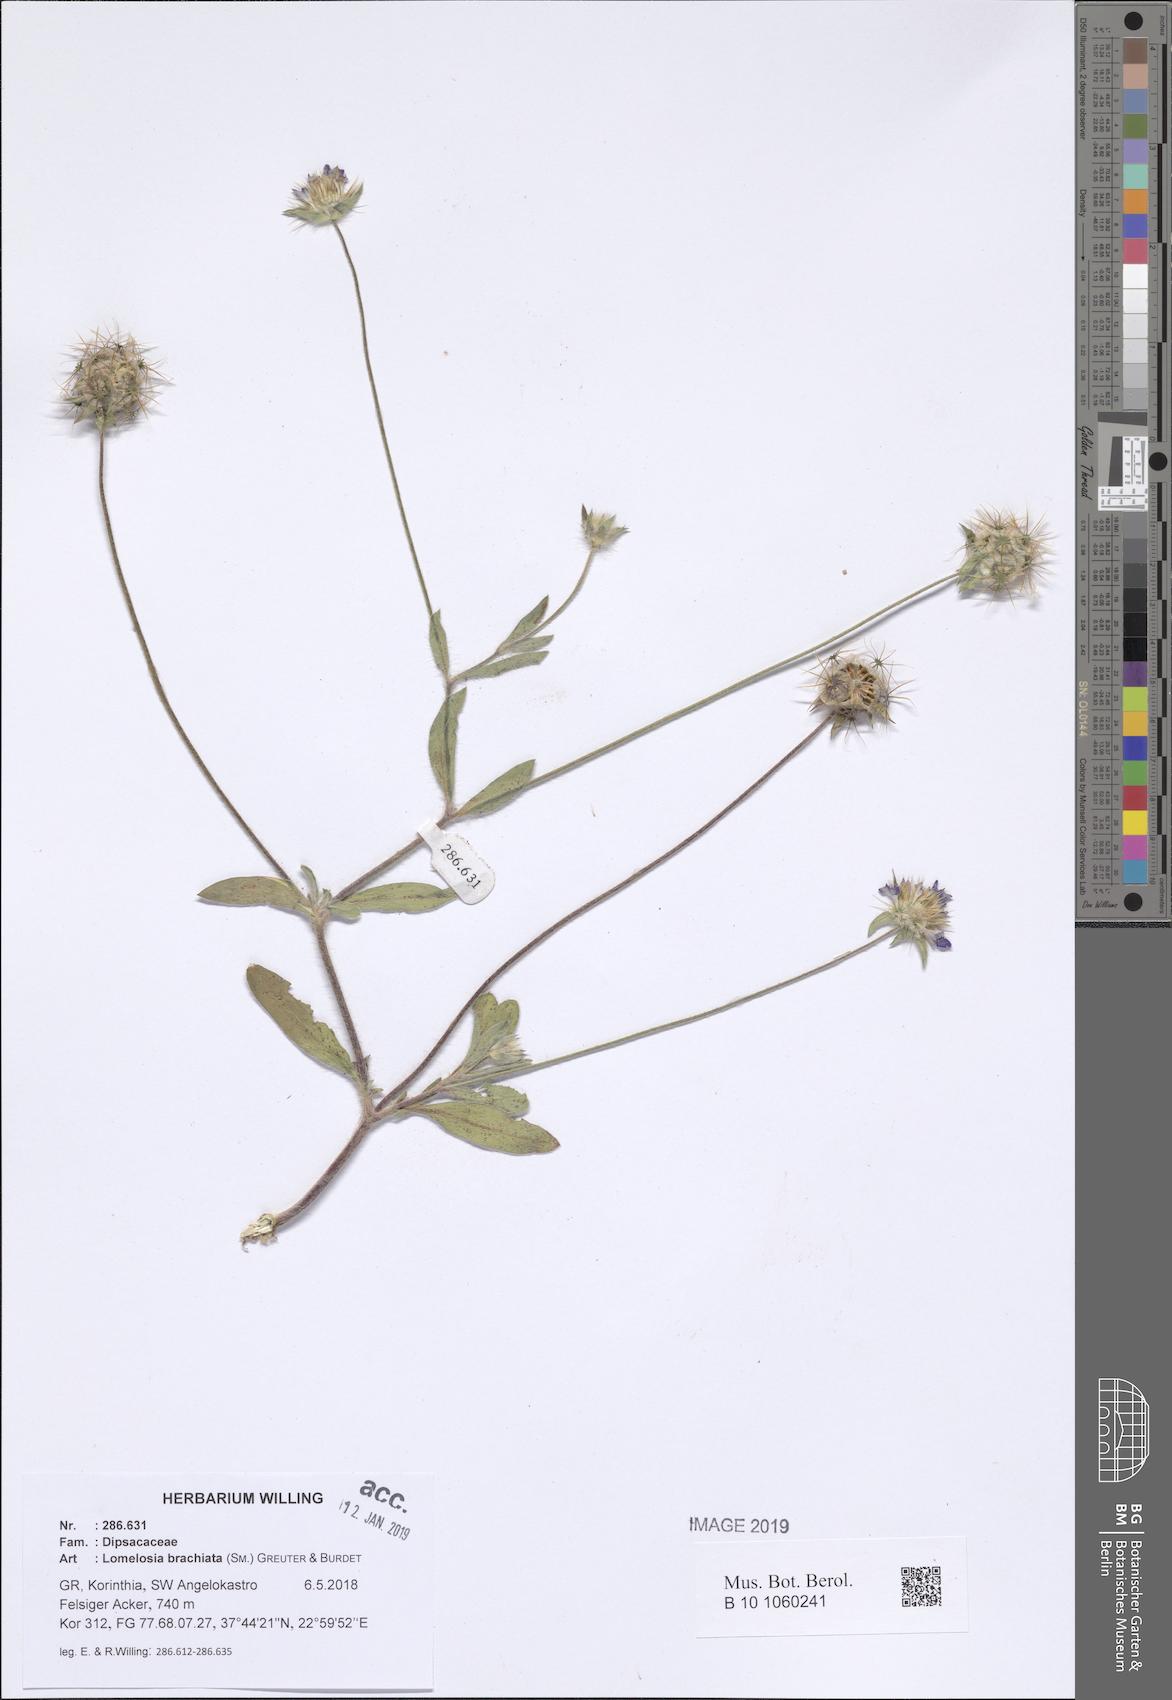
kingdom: Plantae
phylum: Tracheophyta
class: Magnoliopsida
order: Dipsacales
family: Caprifoliaceae
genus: Lomelosia
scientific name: Lomelosia brachiata
